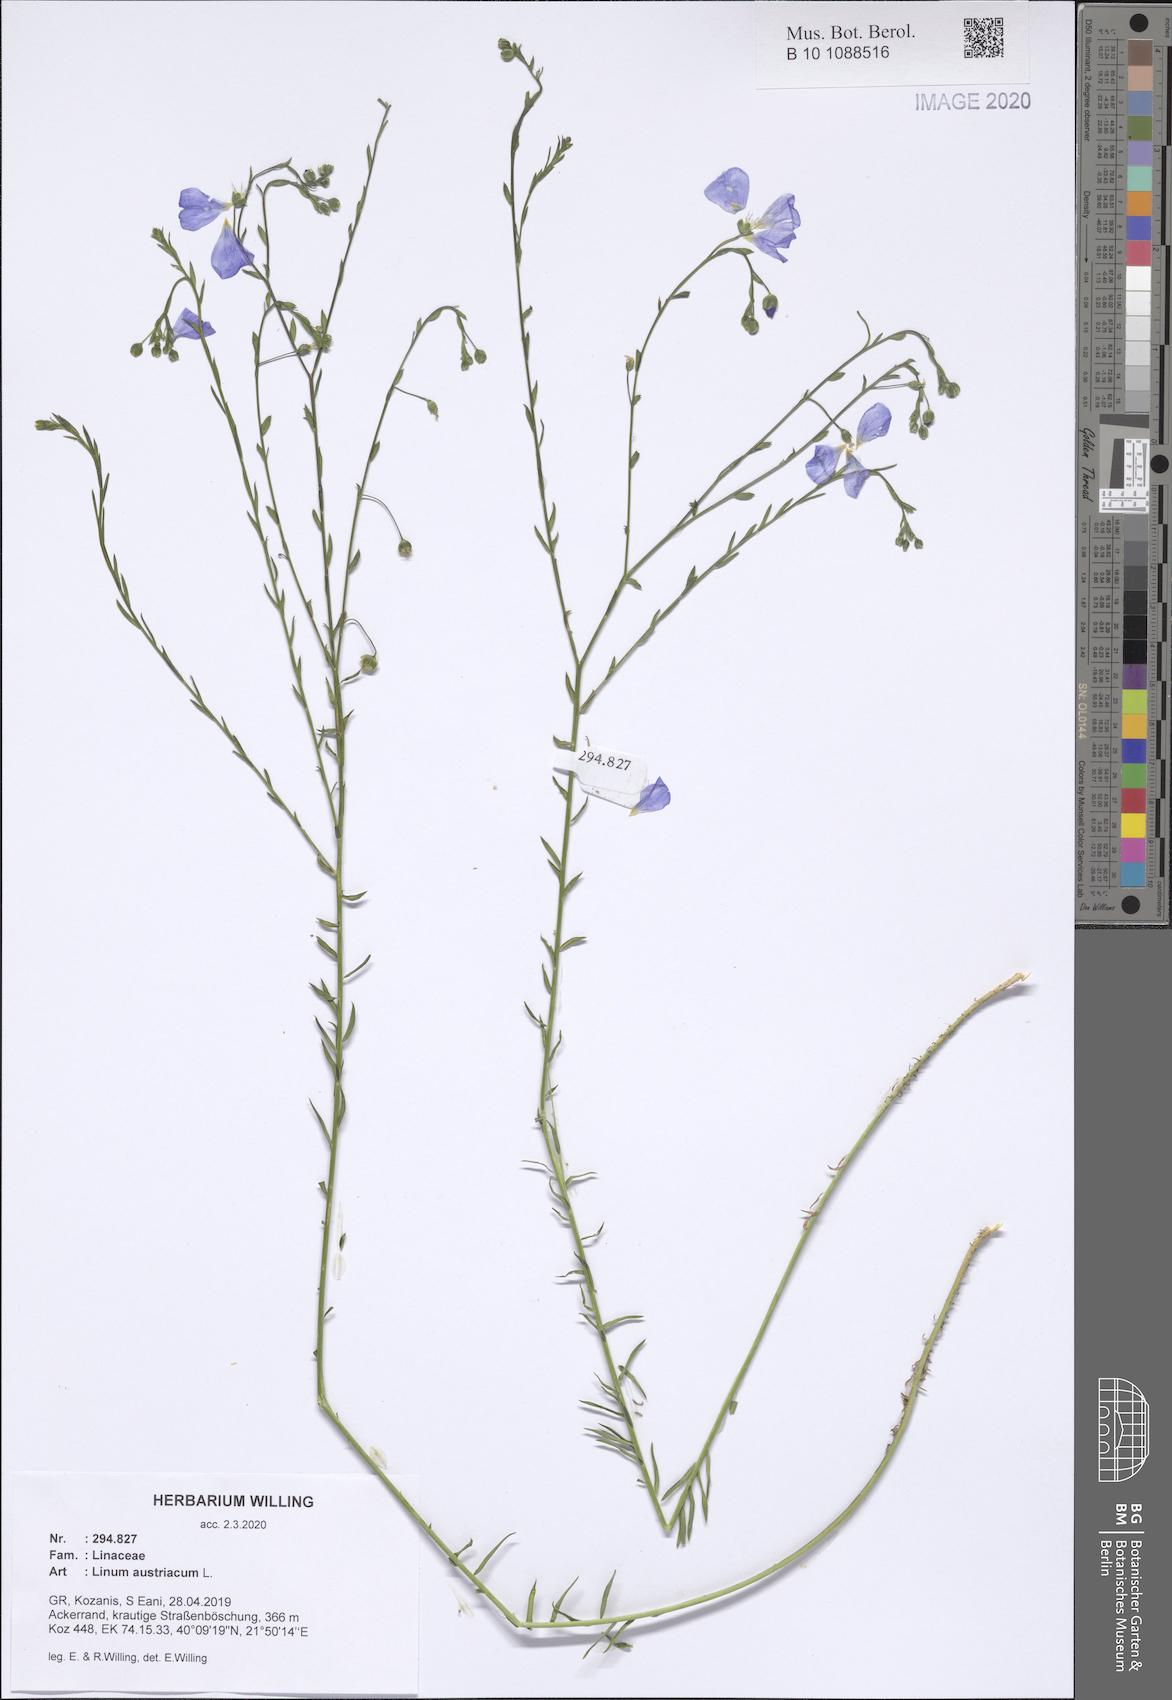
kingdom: Plantae
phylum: Tracheophyta
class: Magnoliopsida
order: Malpighiales
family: Linaceae
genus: Linum
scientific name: Linum austriacum
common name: Austrian flax
